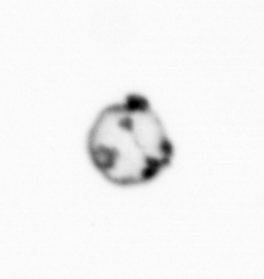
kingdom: Chromista
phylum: Myzozoa
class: Dinophyceae
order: Noctilucales
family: Noctilucaceae
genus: Noctiluca
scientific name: Noctiluca scintillans
